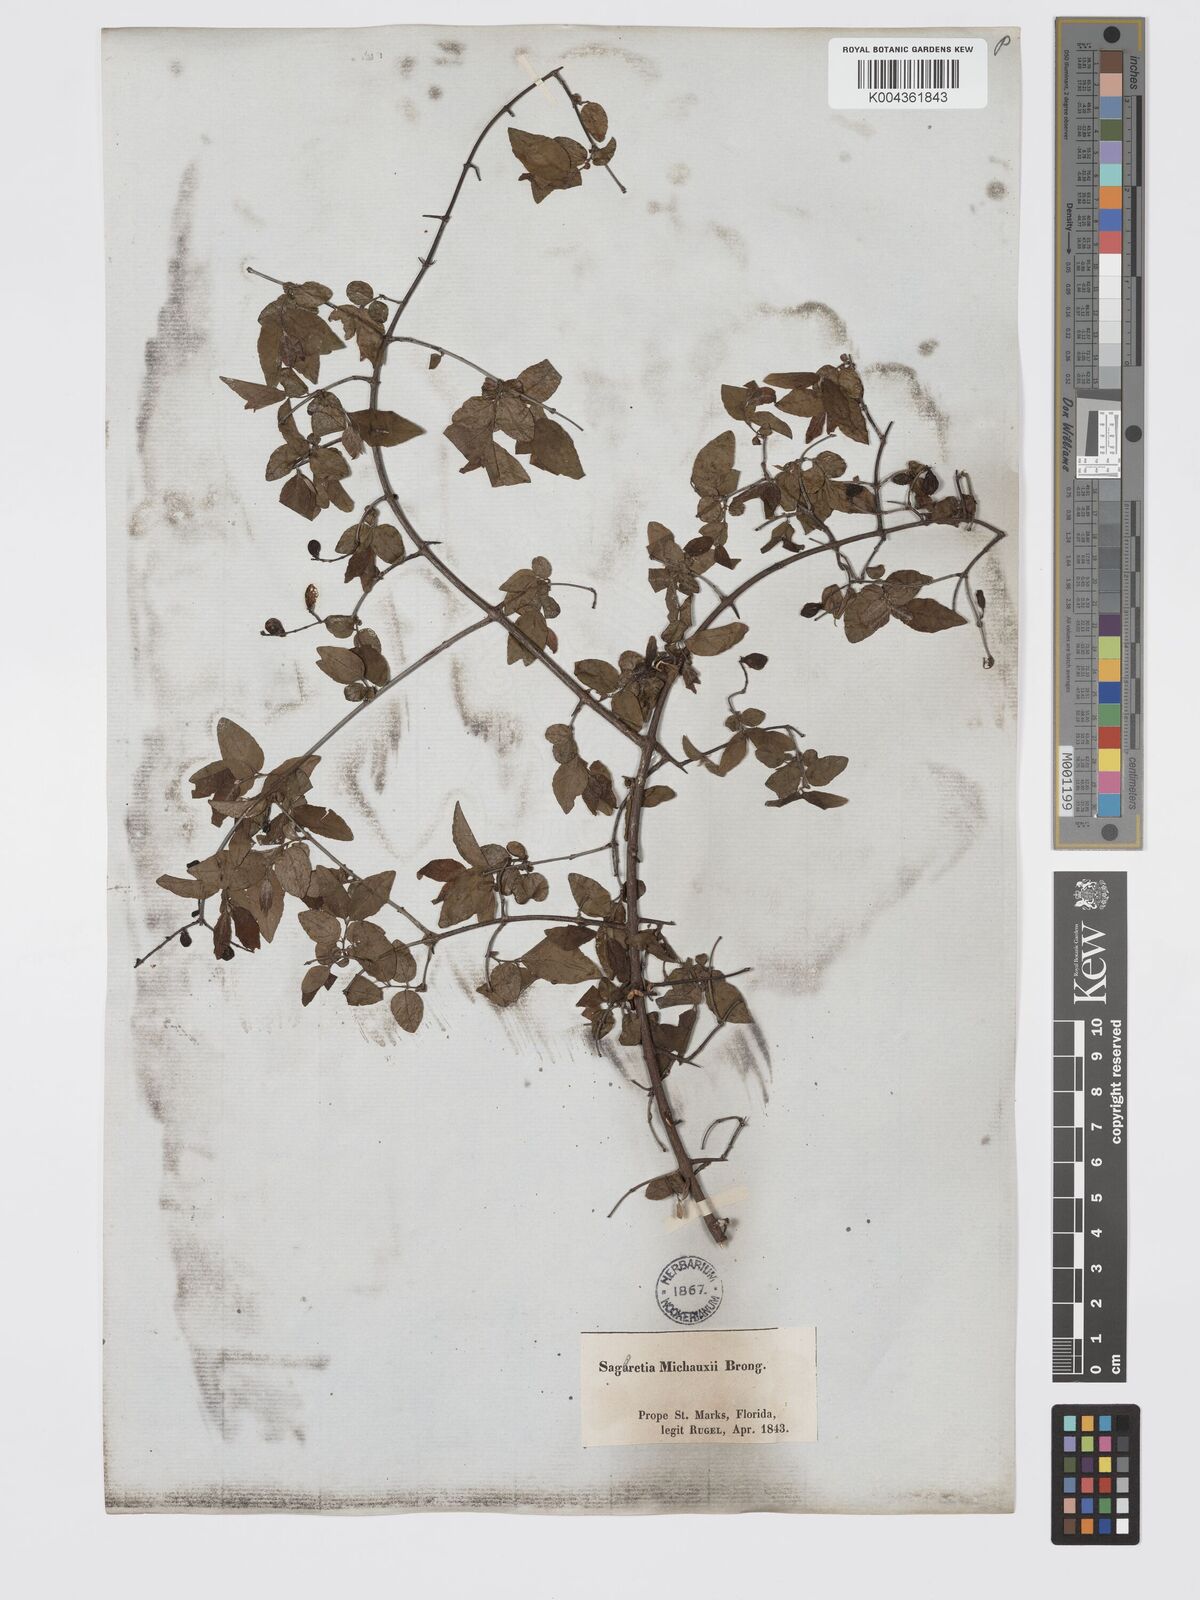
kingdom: Plantae
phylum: Tracheophyta
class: Magnoliopsida
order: Rosales
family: Rhamnaceae
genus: Sageretia
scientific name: Sageretia minutiflora
